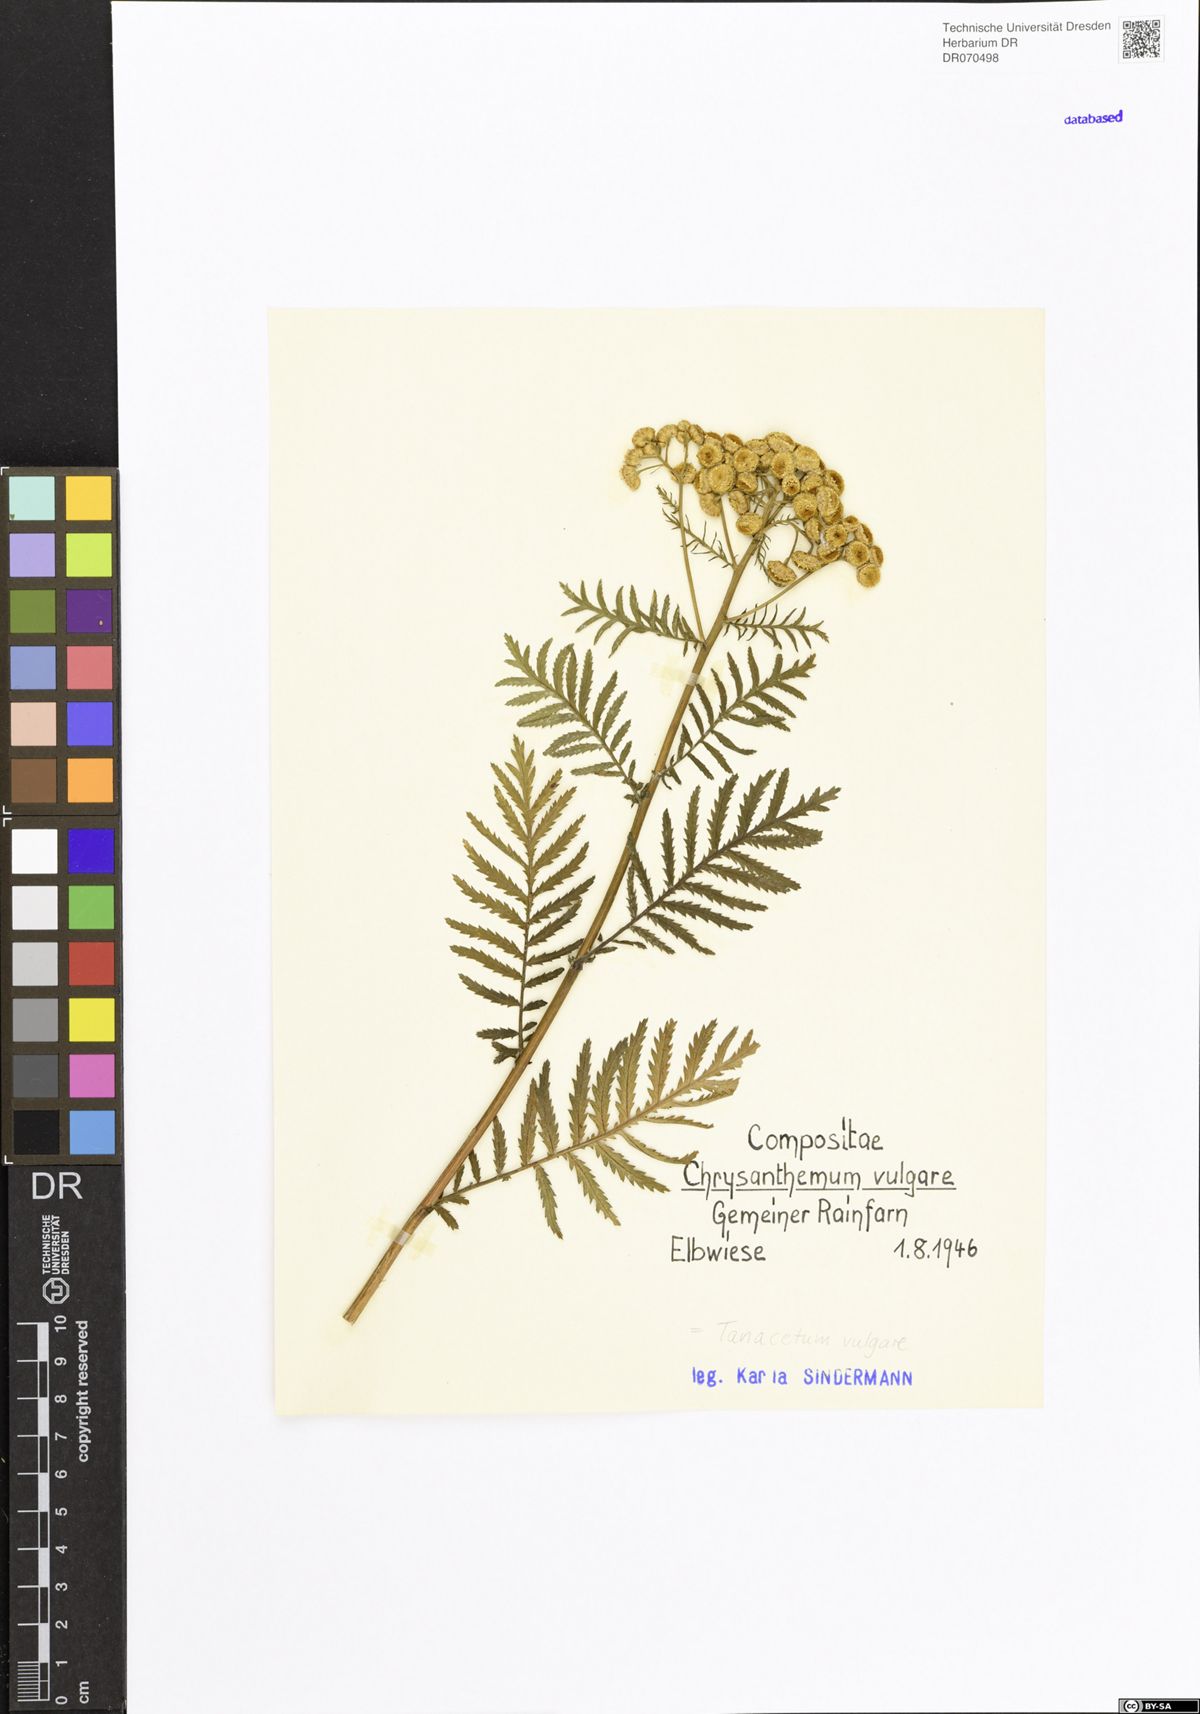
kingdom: Plantae
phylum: Tracheophyta
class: Magnoliopsida
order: Asterales
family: Asteraceae
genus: Tanacetum
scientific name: Tanacetum vulgare
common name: Common tansy
